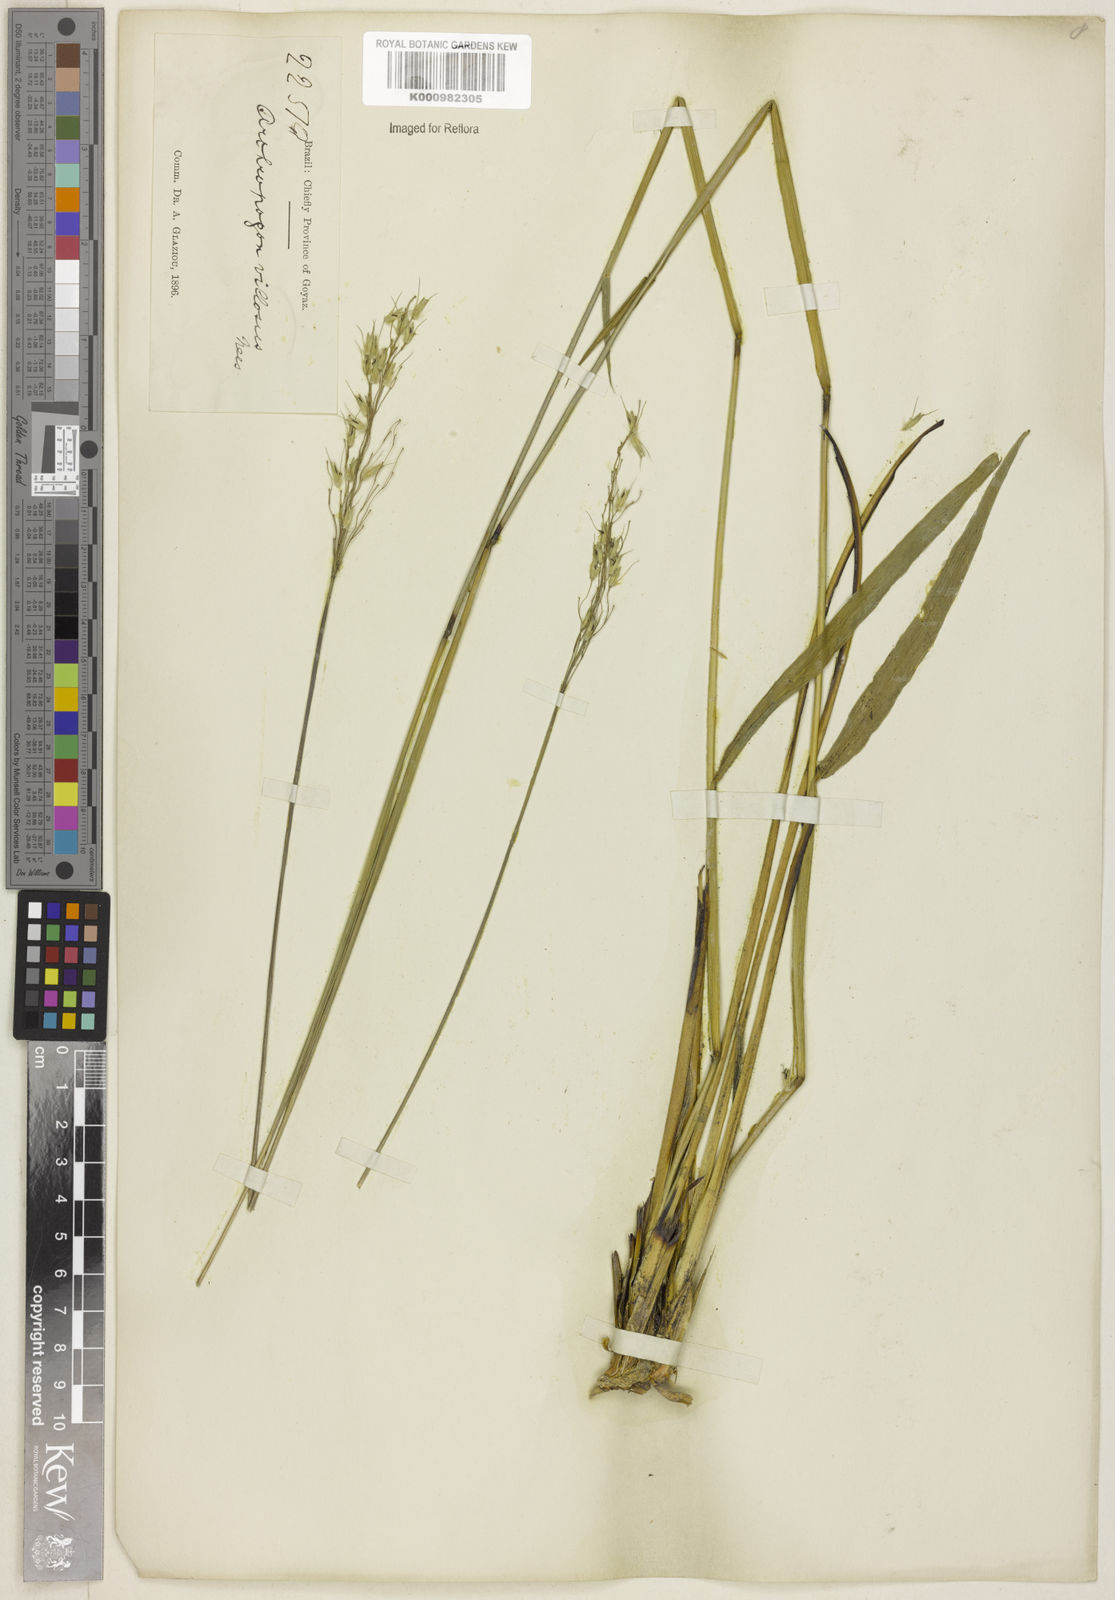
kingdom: Plantae
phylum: Tracheophyta
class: Liliopsida
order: Poales
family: Poaceae
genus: Arthropogon
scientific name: Arthropogon villosus
